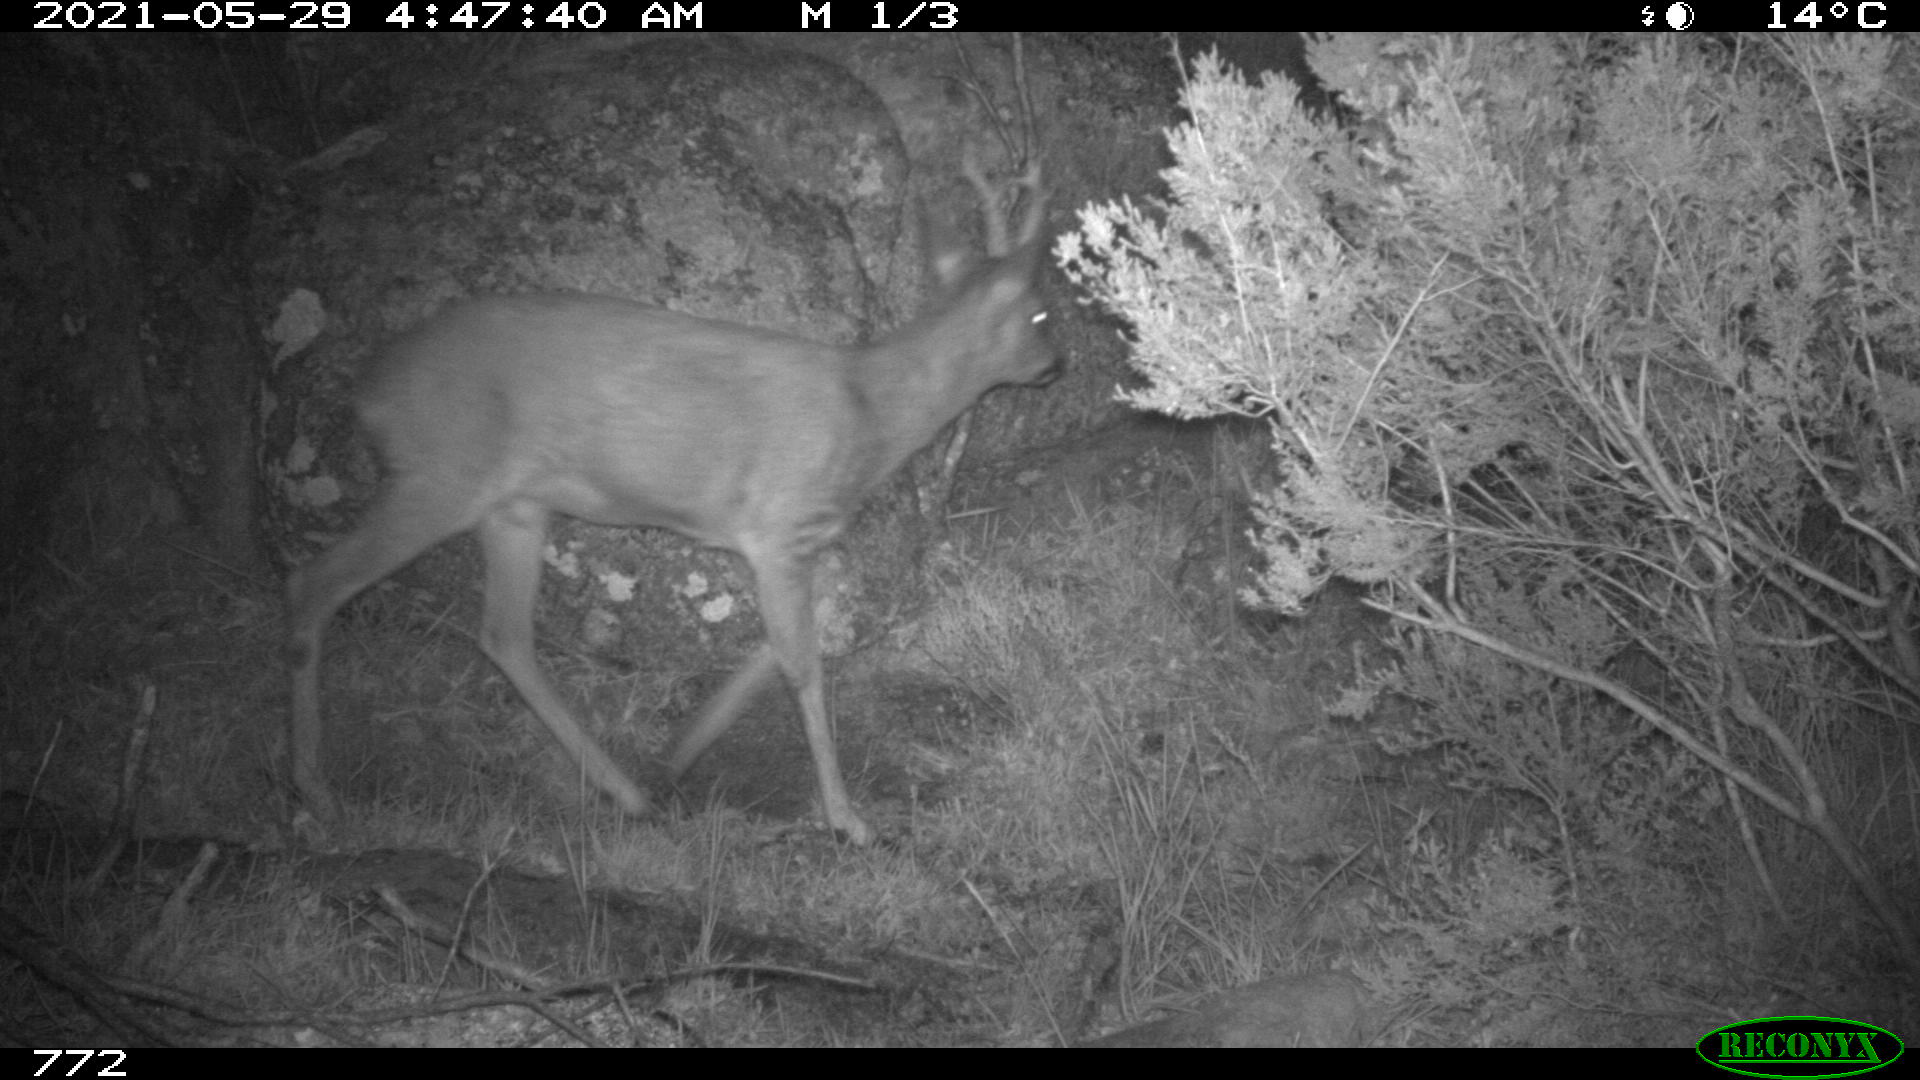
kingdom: Animalia
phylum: Chordata
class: Mammalia
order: Artiodactyla
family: Cervidae
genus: Capreolus
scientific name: Capreolus capreolus
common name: Western roe deer
